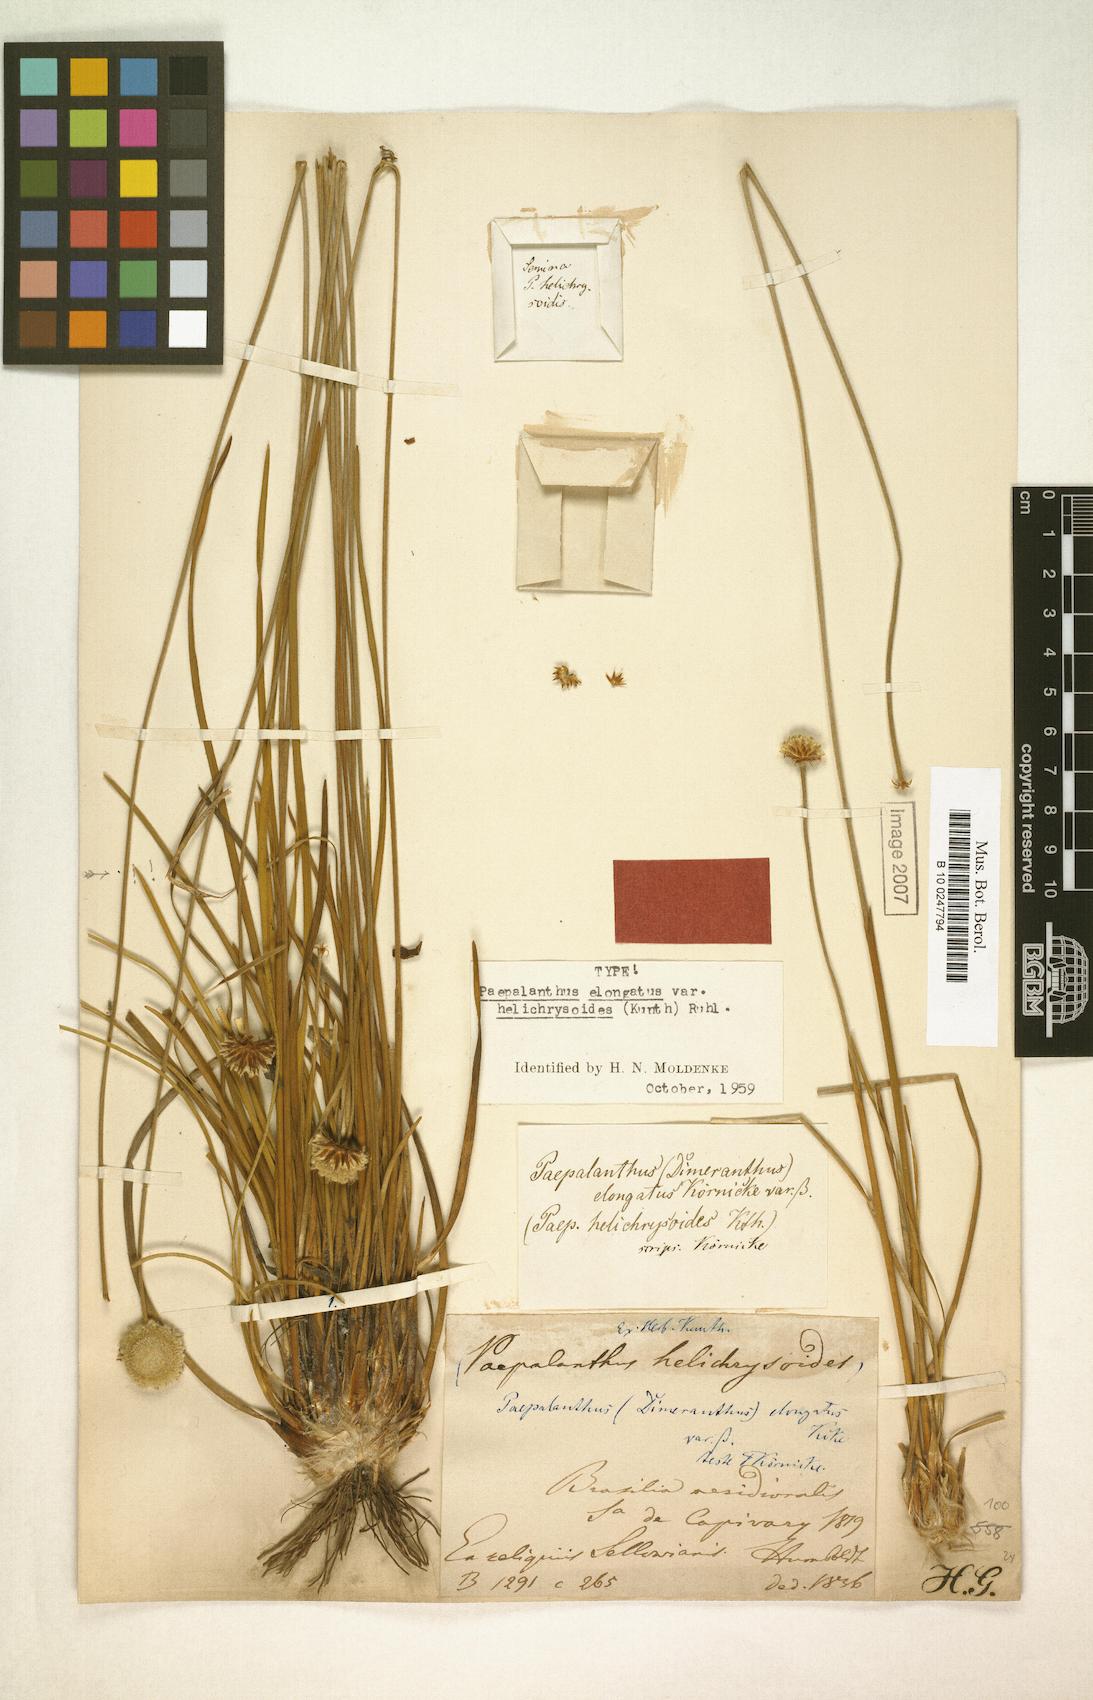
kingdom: Plantae
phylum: Tracheophyta
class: Liliopsida
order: Poales
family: Eriocaulaceae
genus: Paepalanthus
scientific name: Paepalanthus elongatus
